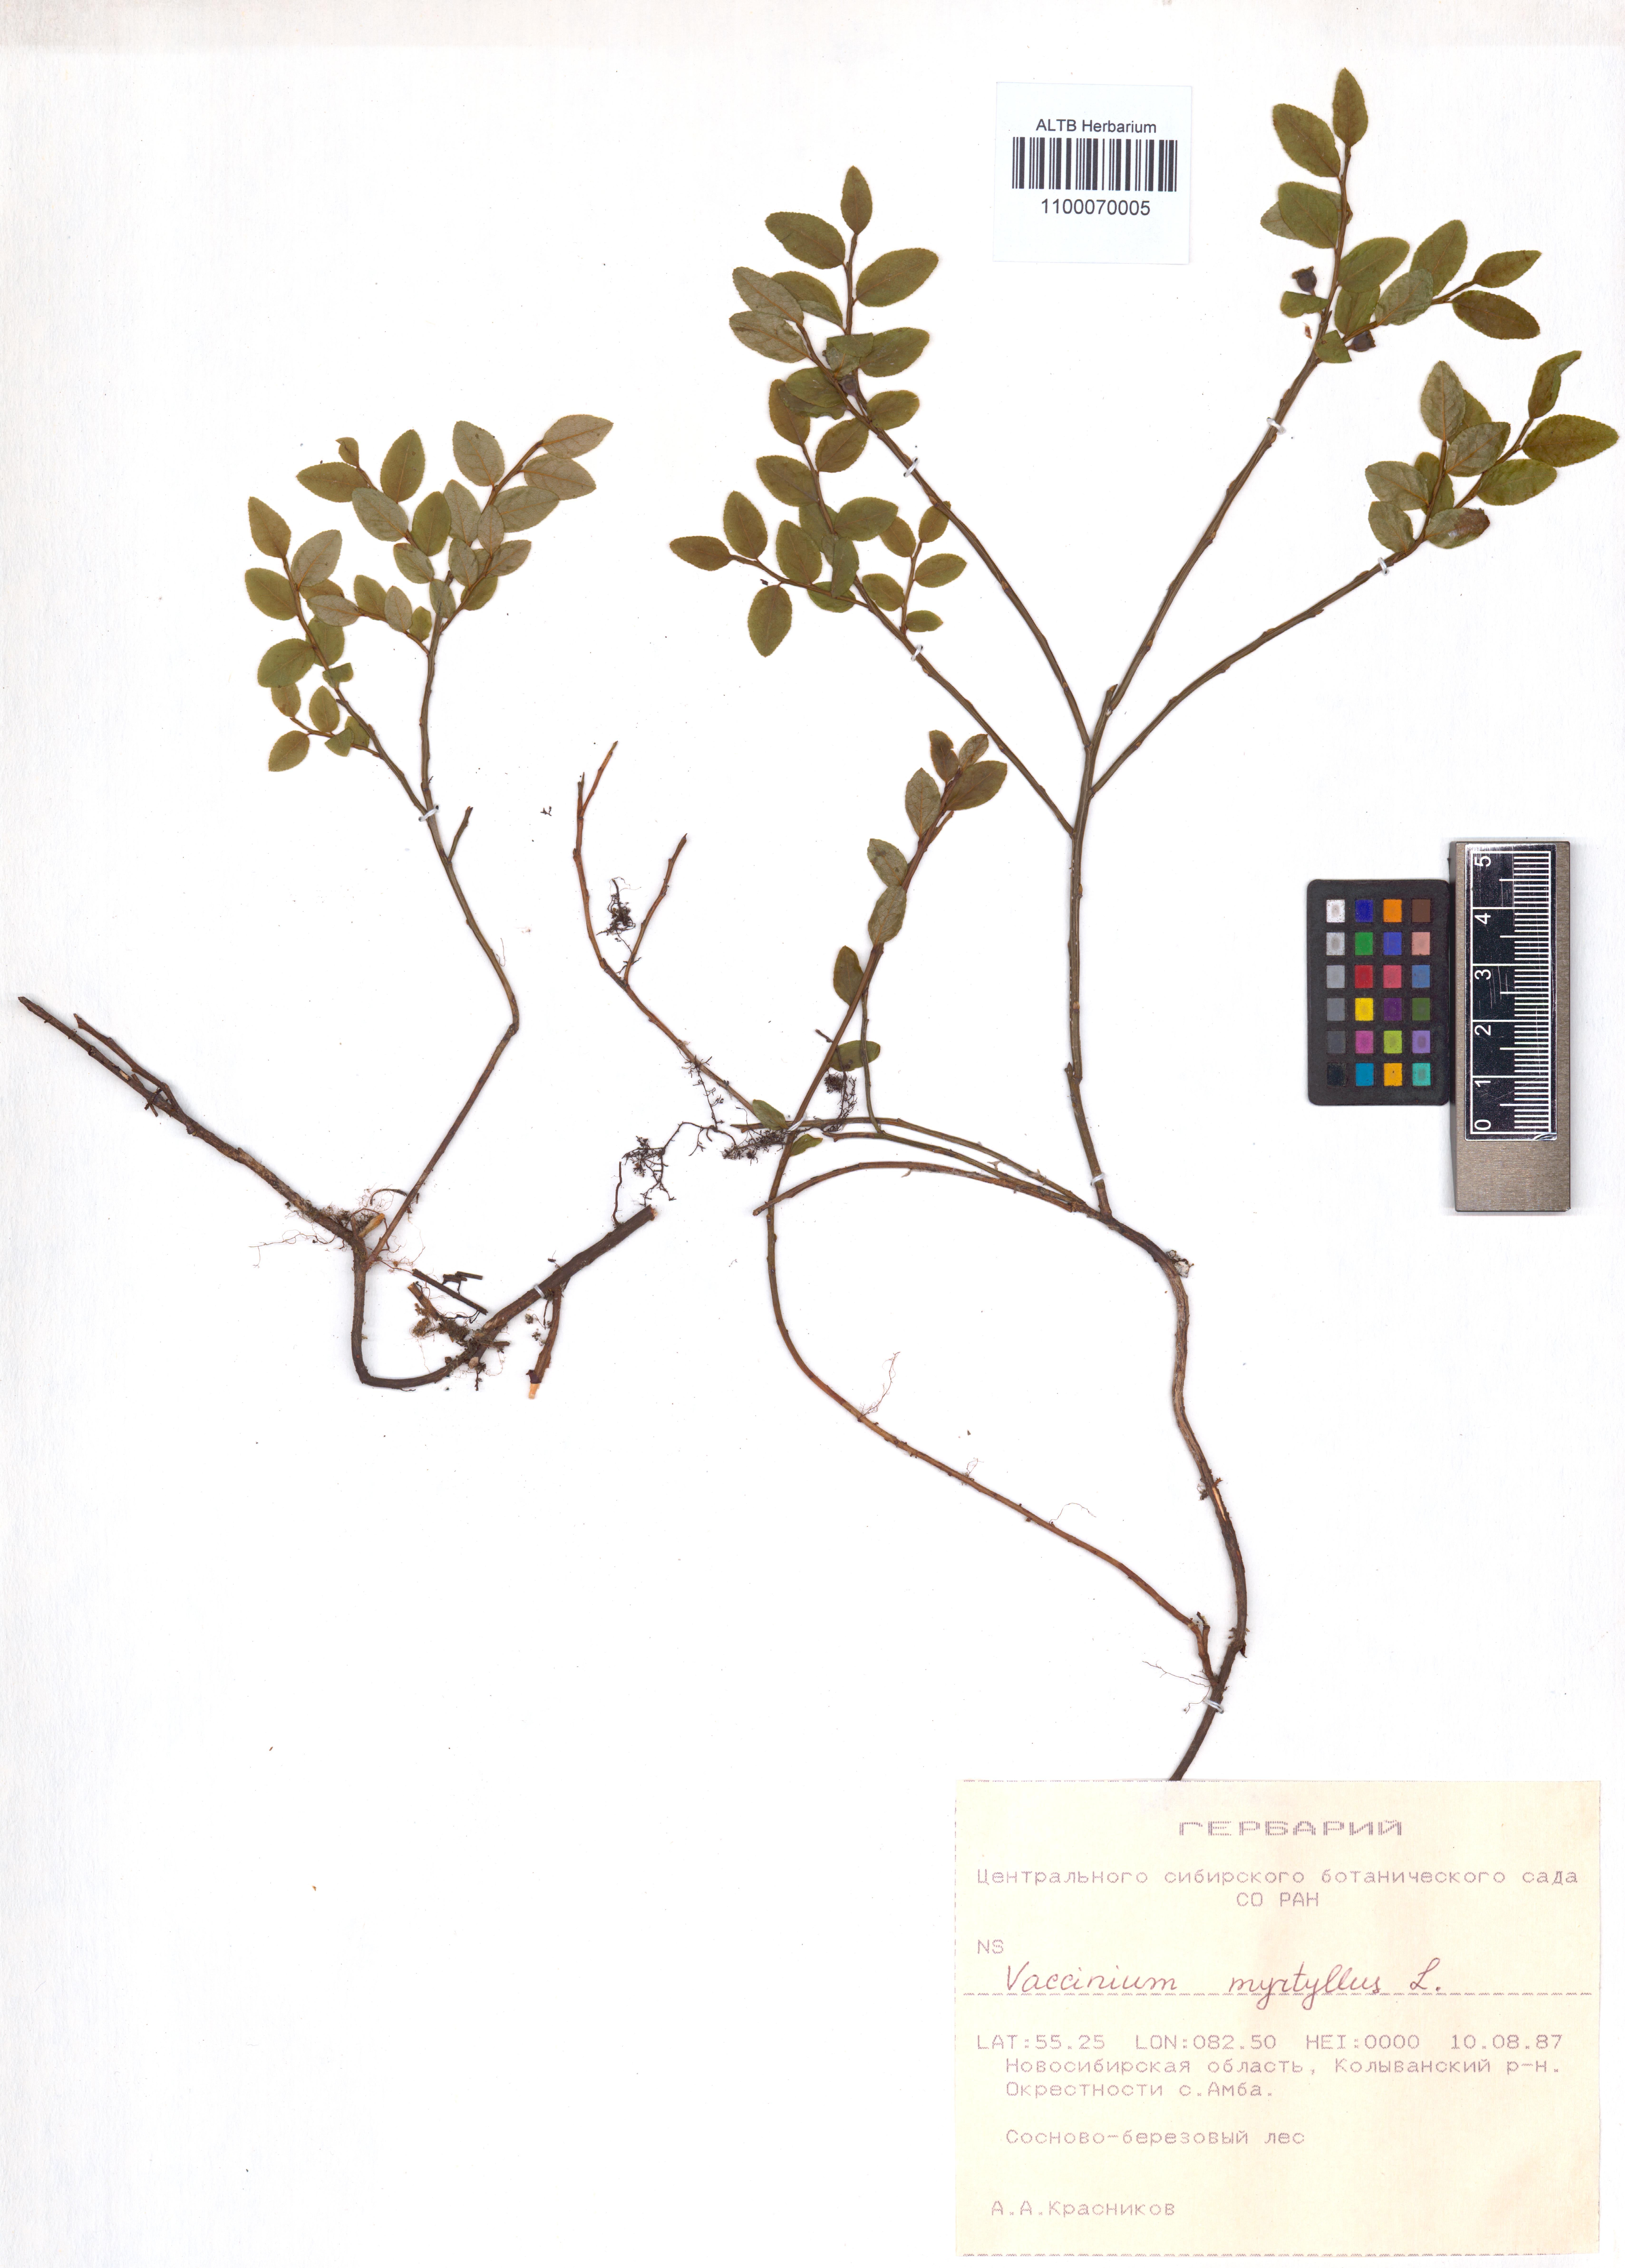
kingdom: Plantae
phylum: Tracheophyta
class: Magnoliopsida
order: Ericales
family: Ericaceae
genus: Vaccinium
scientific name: Vaccinium myrtillus
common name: Bilberry
